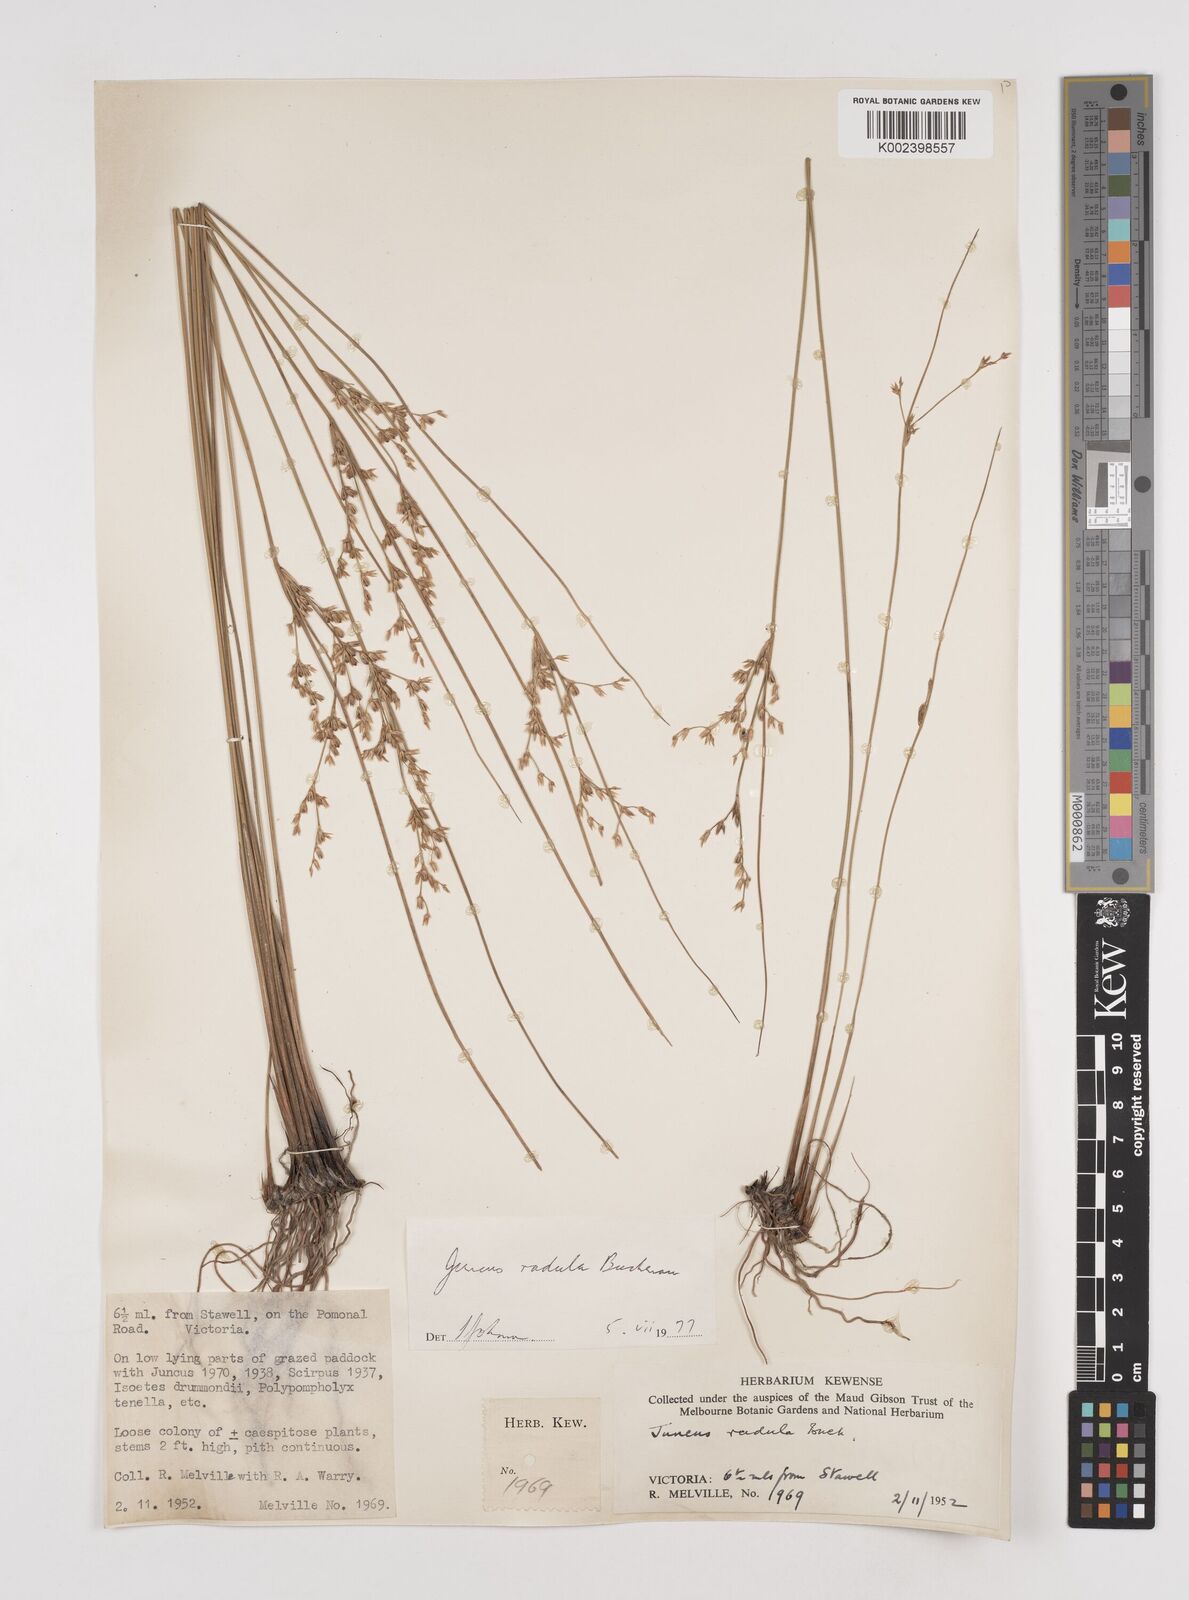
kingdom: Plantae
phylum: Tracheophyta
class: Liliopsida
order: Poales
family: Juncaceae
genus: Juncus
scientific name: Juncus radula
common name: Hoary rush
